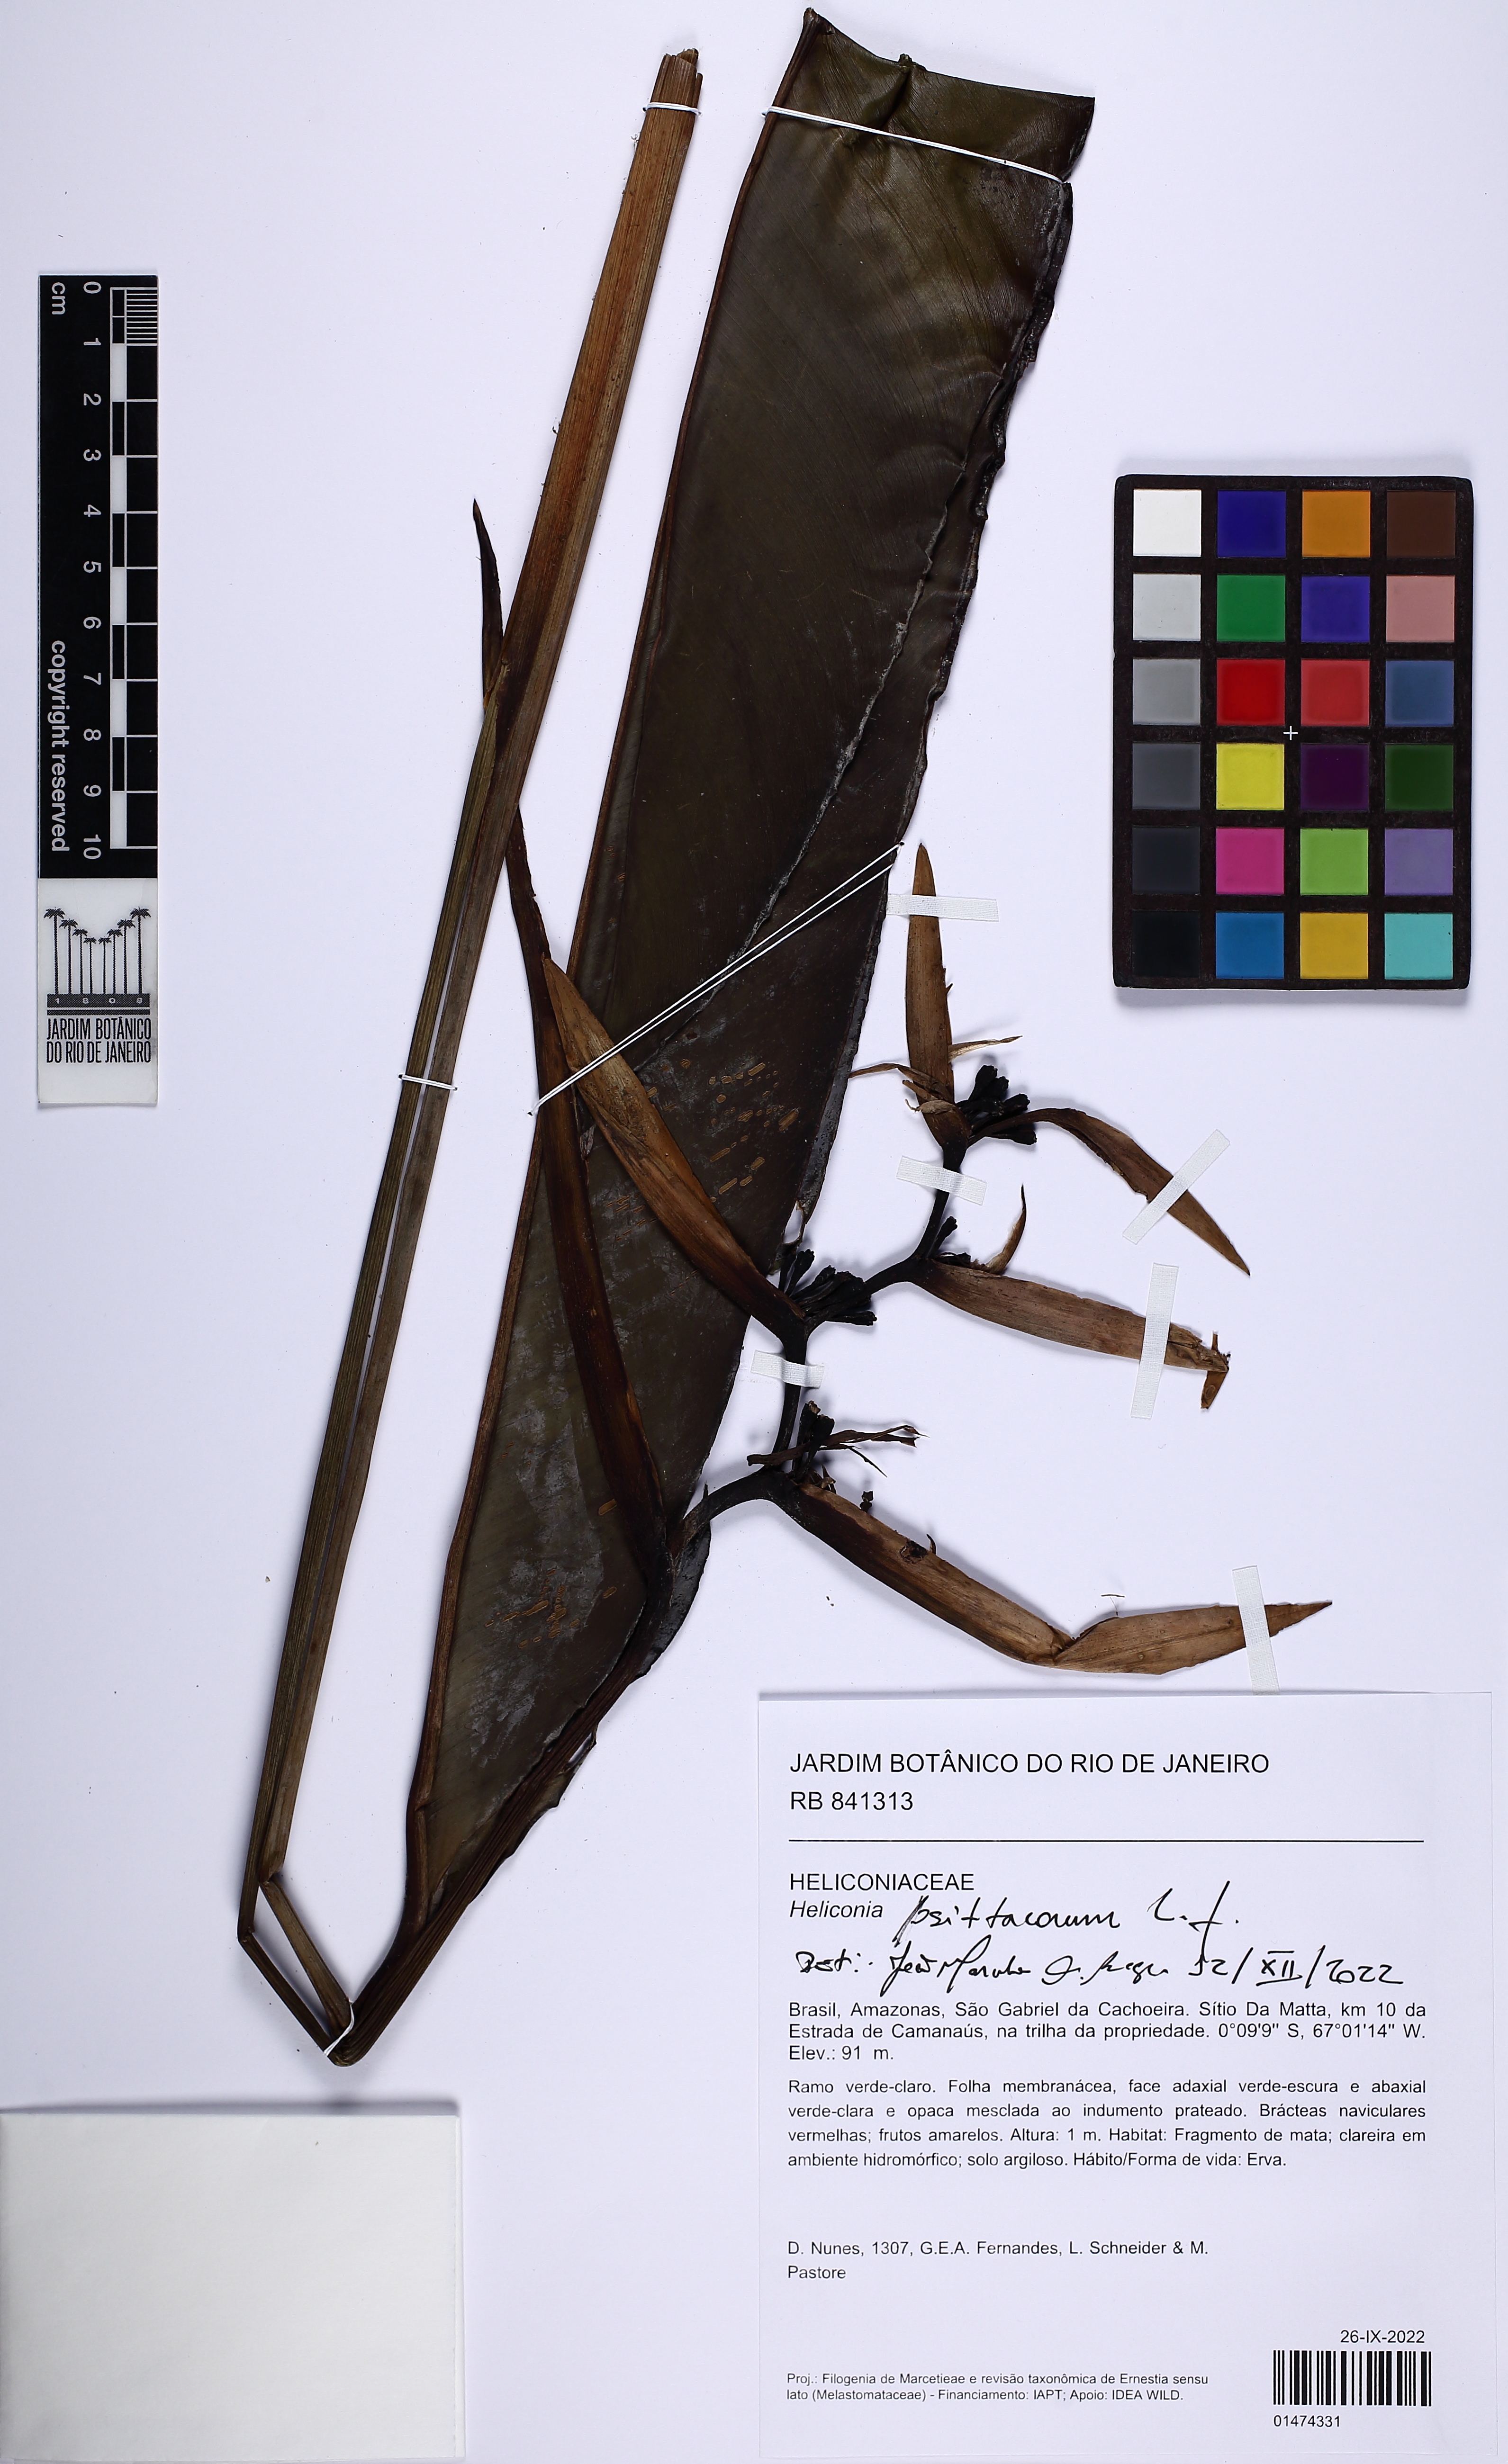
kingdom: Plantae
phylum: Tracheophyta
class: Liliopsida
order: Zingiberales
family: Heliconiaceae
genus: Heliconia
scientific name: Heliconia psittacorum
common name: Parrot's-flower
